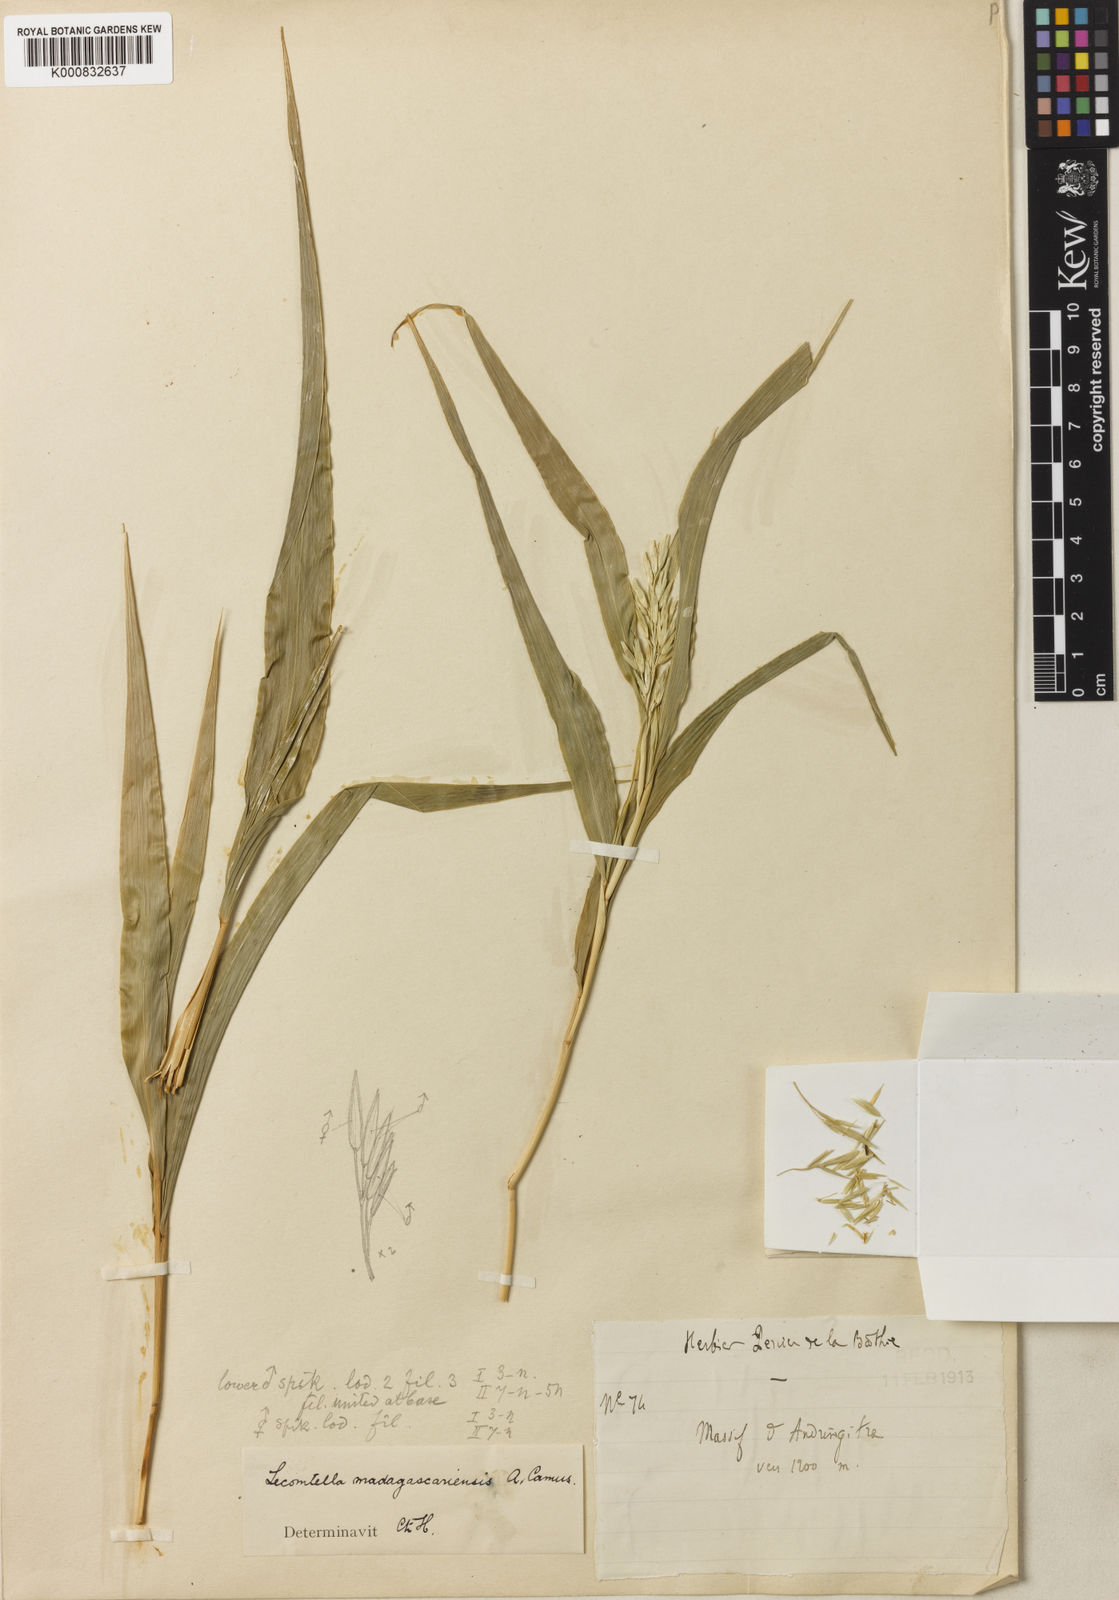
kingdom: Plantae
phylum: Tracheophyta
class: Liliopsida
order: Poales
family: Poaceae
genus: Lecomtella
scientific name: Lecomtella madagascariensis
